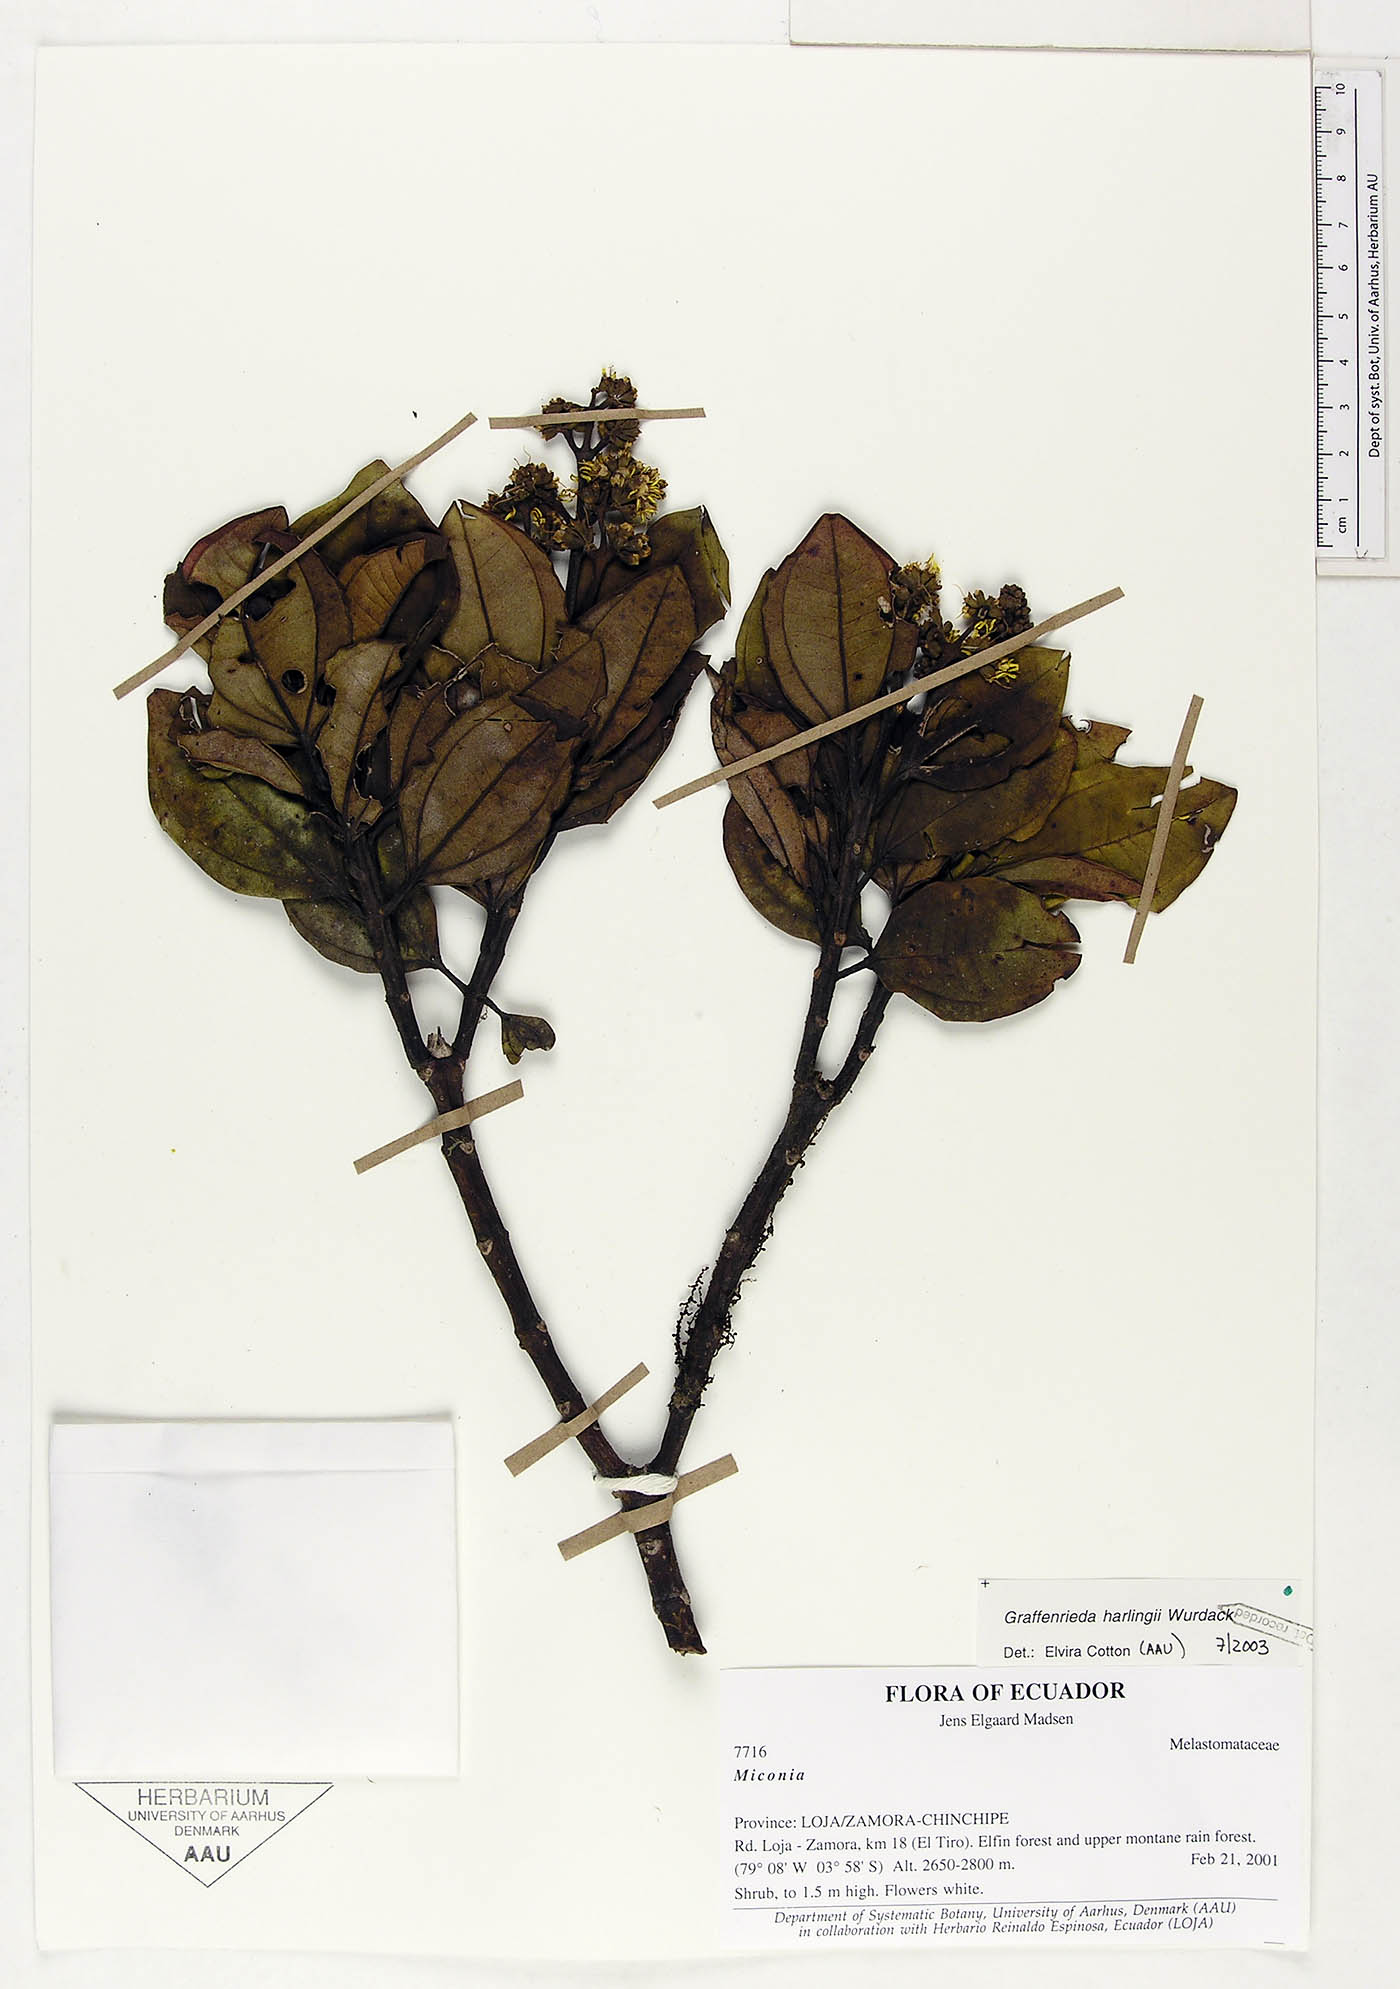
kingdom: Plantae
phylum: Tracheophyta
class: Magnoliopsida
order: Myrtales
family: Melastomataceae
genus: Graffenrieda
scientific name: Graffenrieda harlingii
